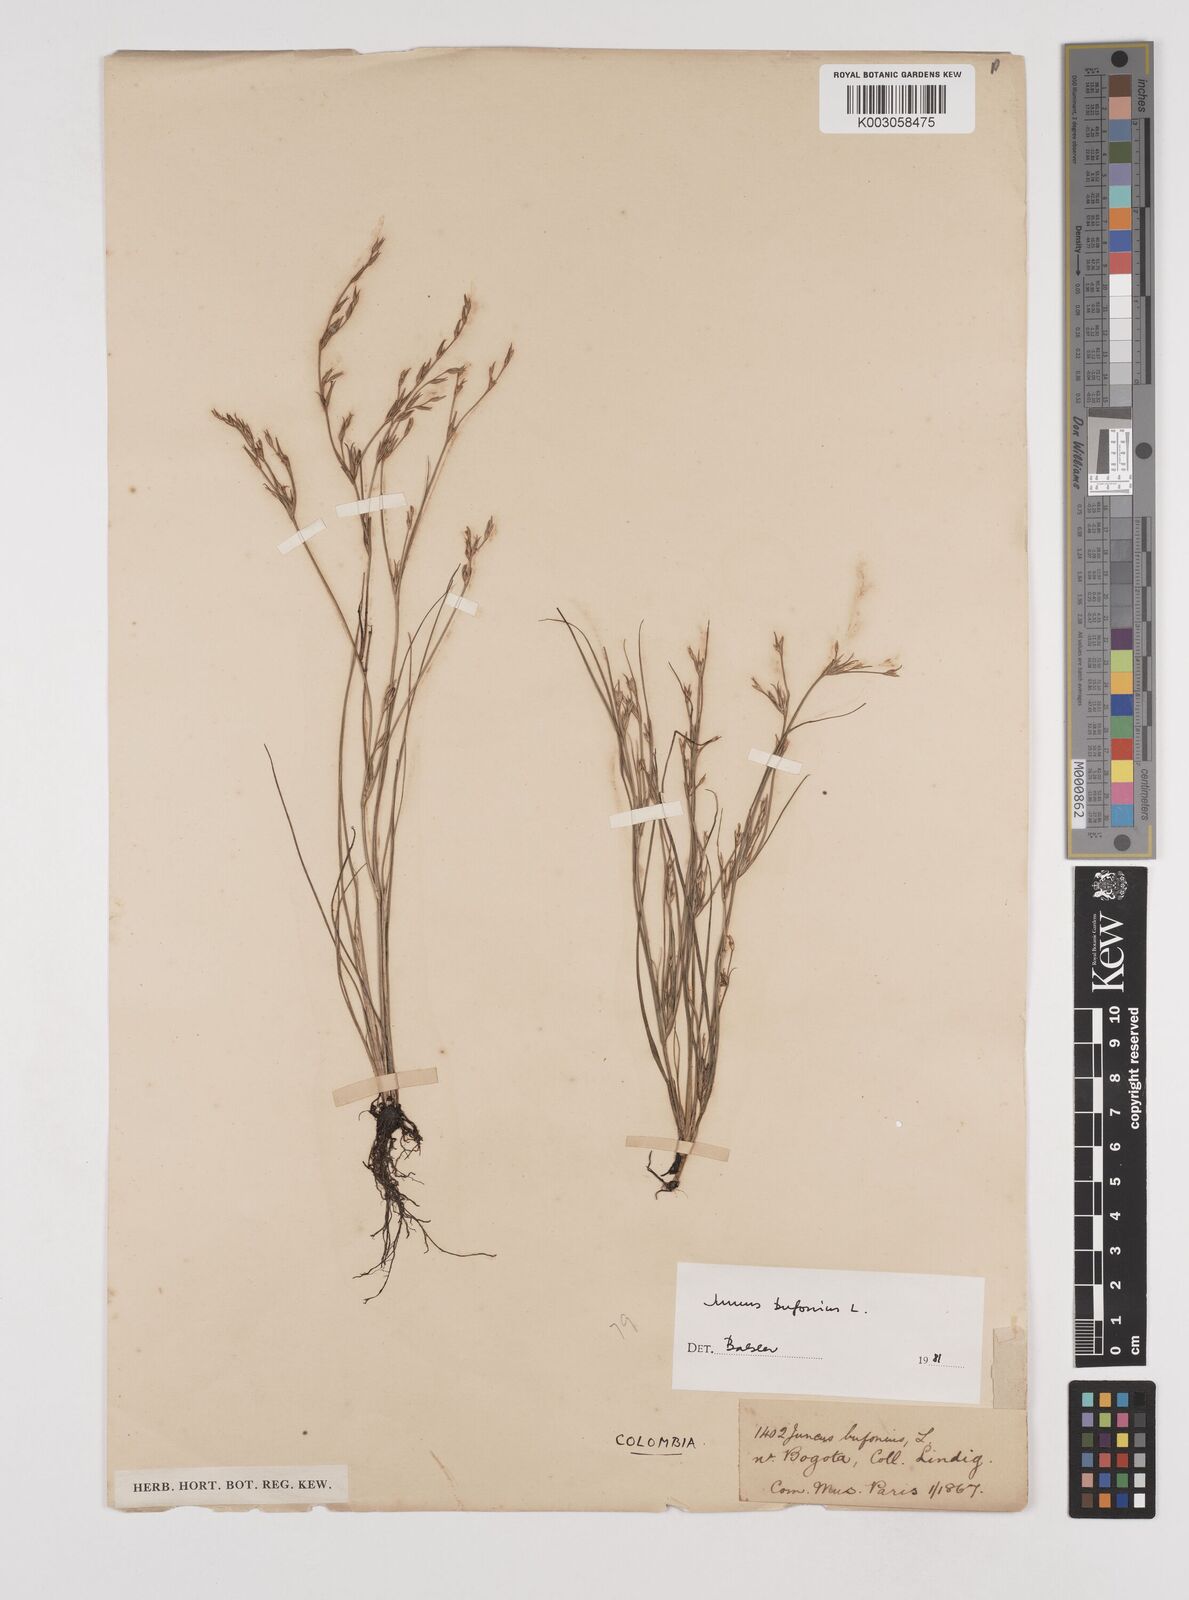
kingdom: Plantae
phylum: Tracheophyta
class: Liliopsida
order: Poales
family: Juncaceae
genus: Juncus
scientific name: Juncus bufonius
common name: Toad rush
